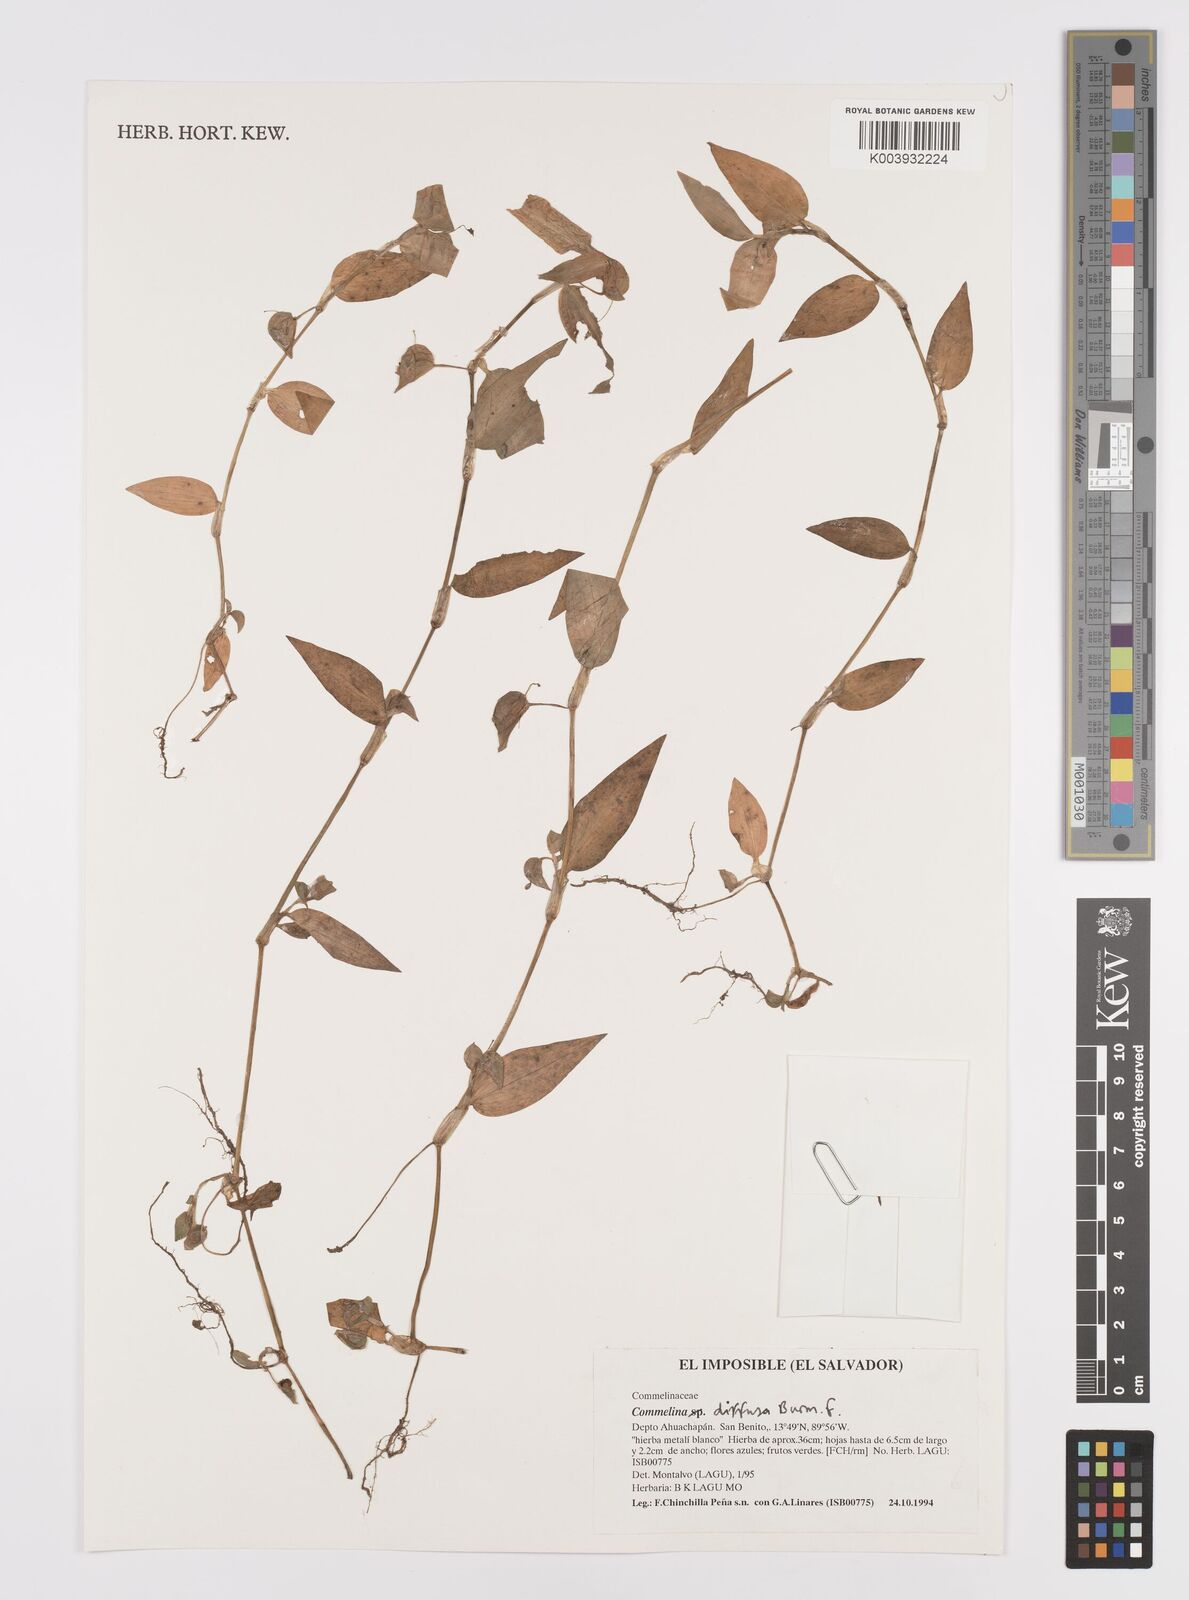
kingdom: Plantae
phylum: Tracheophyta
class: Liliopsida
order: Commelinales
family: Commelinaceae
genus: Commelina
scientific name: Commelina diffusa
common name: Climbing dayflower
